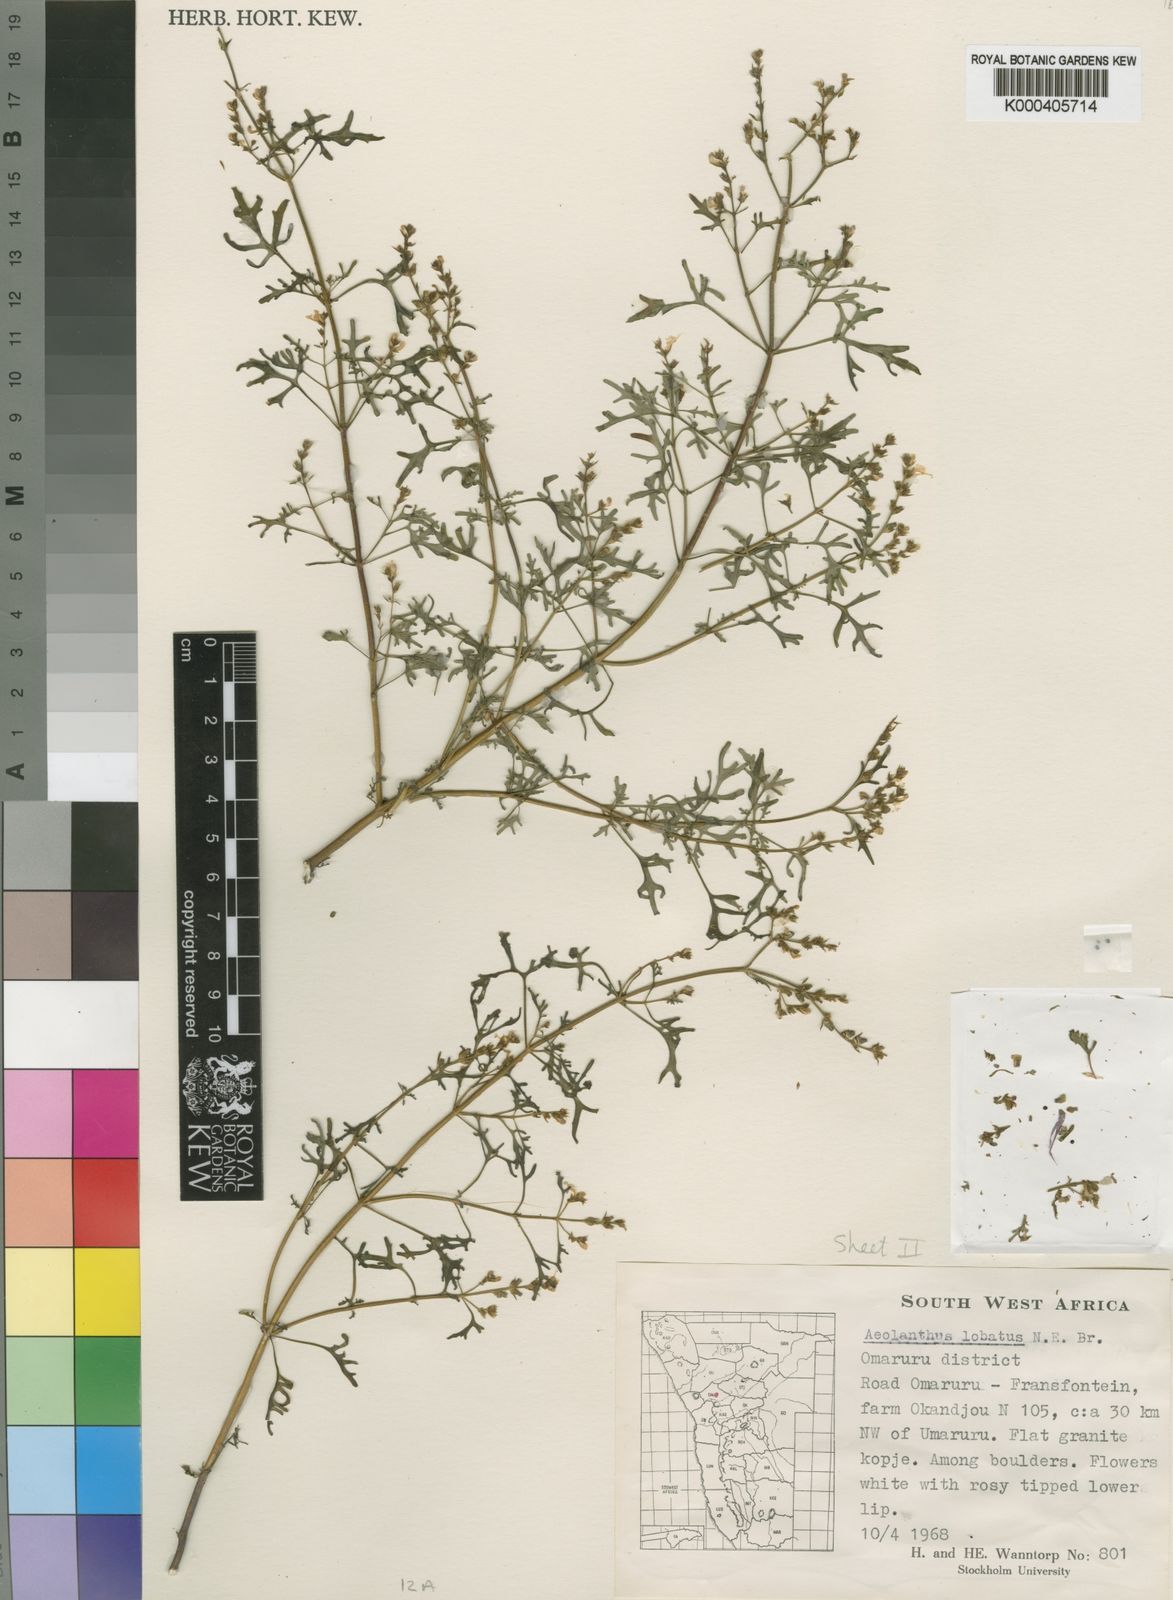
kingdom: Plantae
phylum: Tracheophyta
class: Magnoliopsida
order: Lamiales
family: Lamiaceae
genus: Aeollanthus
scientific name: Aeollanthus namibiensis
